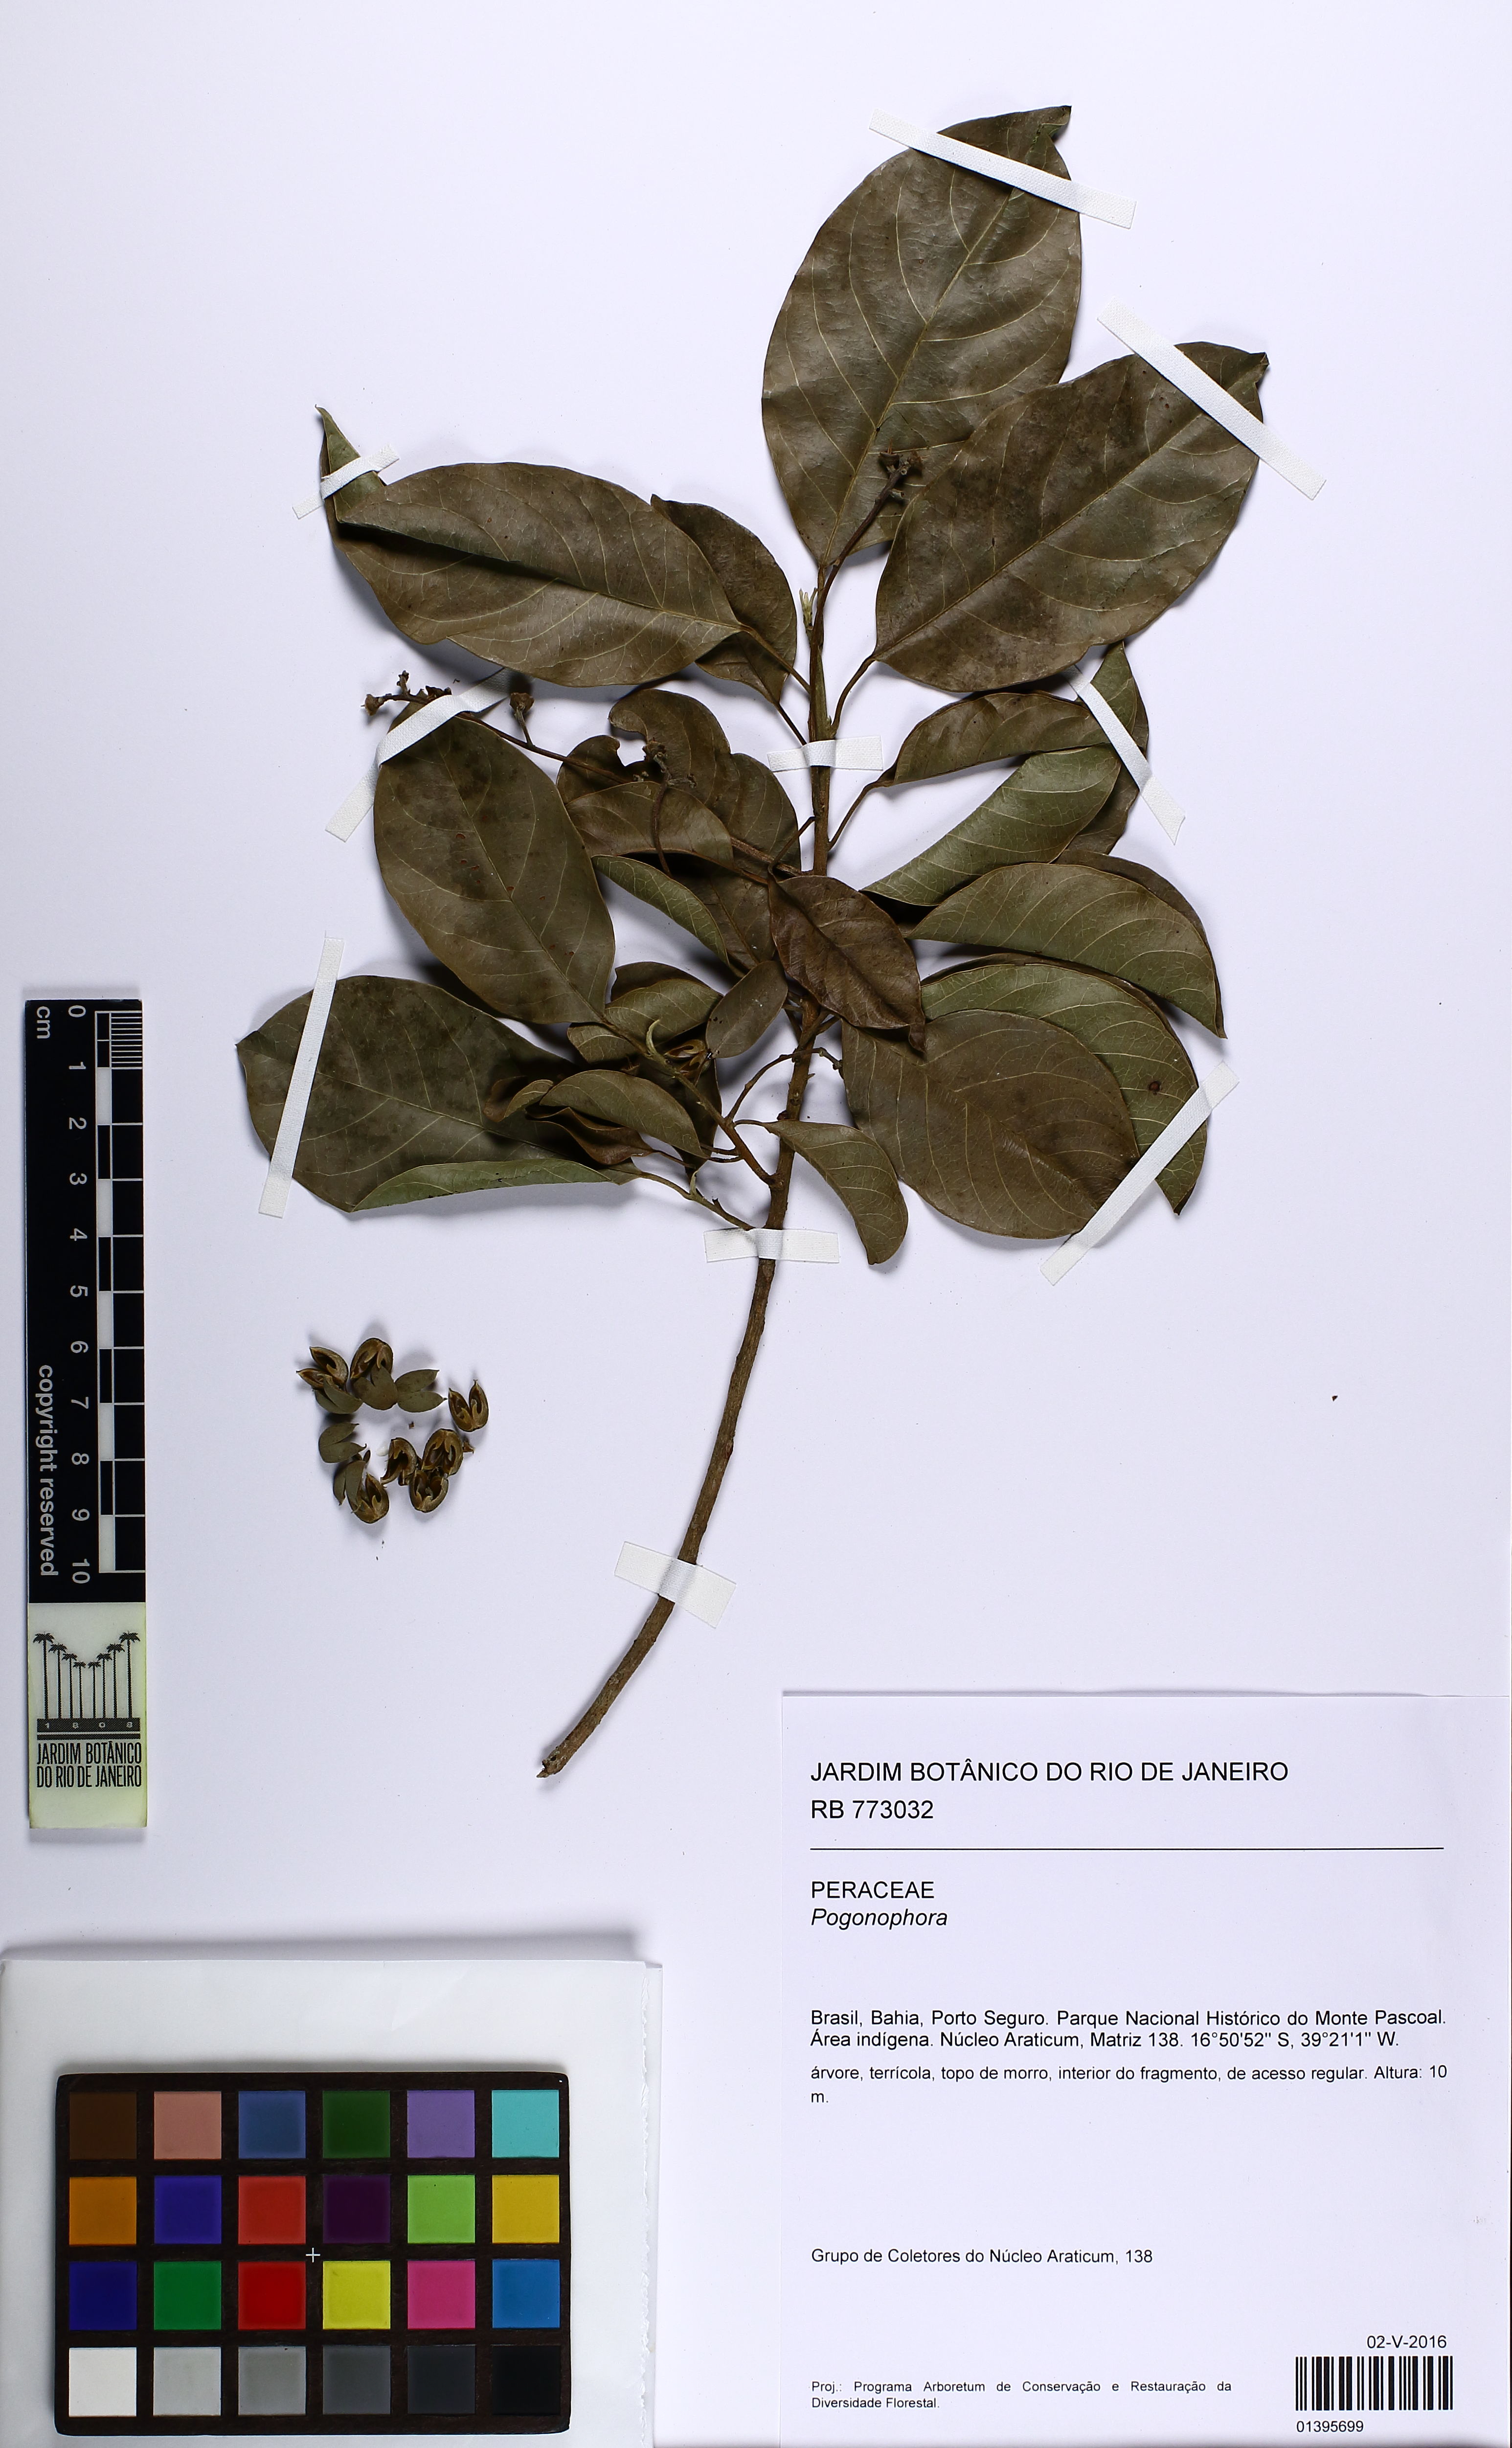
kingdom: Plantae
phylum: Tracheophyta
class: Magnoliopsida
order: Malpighiales
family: Peraceae
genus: Pogonophora
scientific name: Pogonophora schomburgkiana
